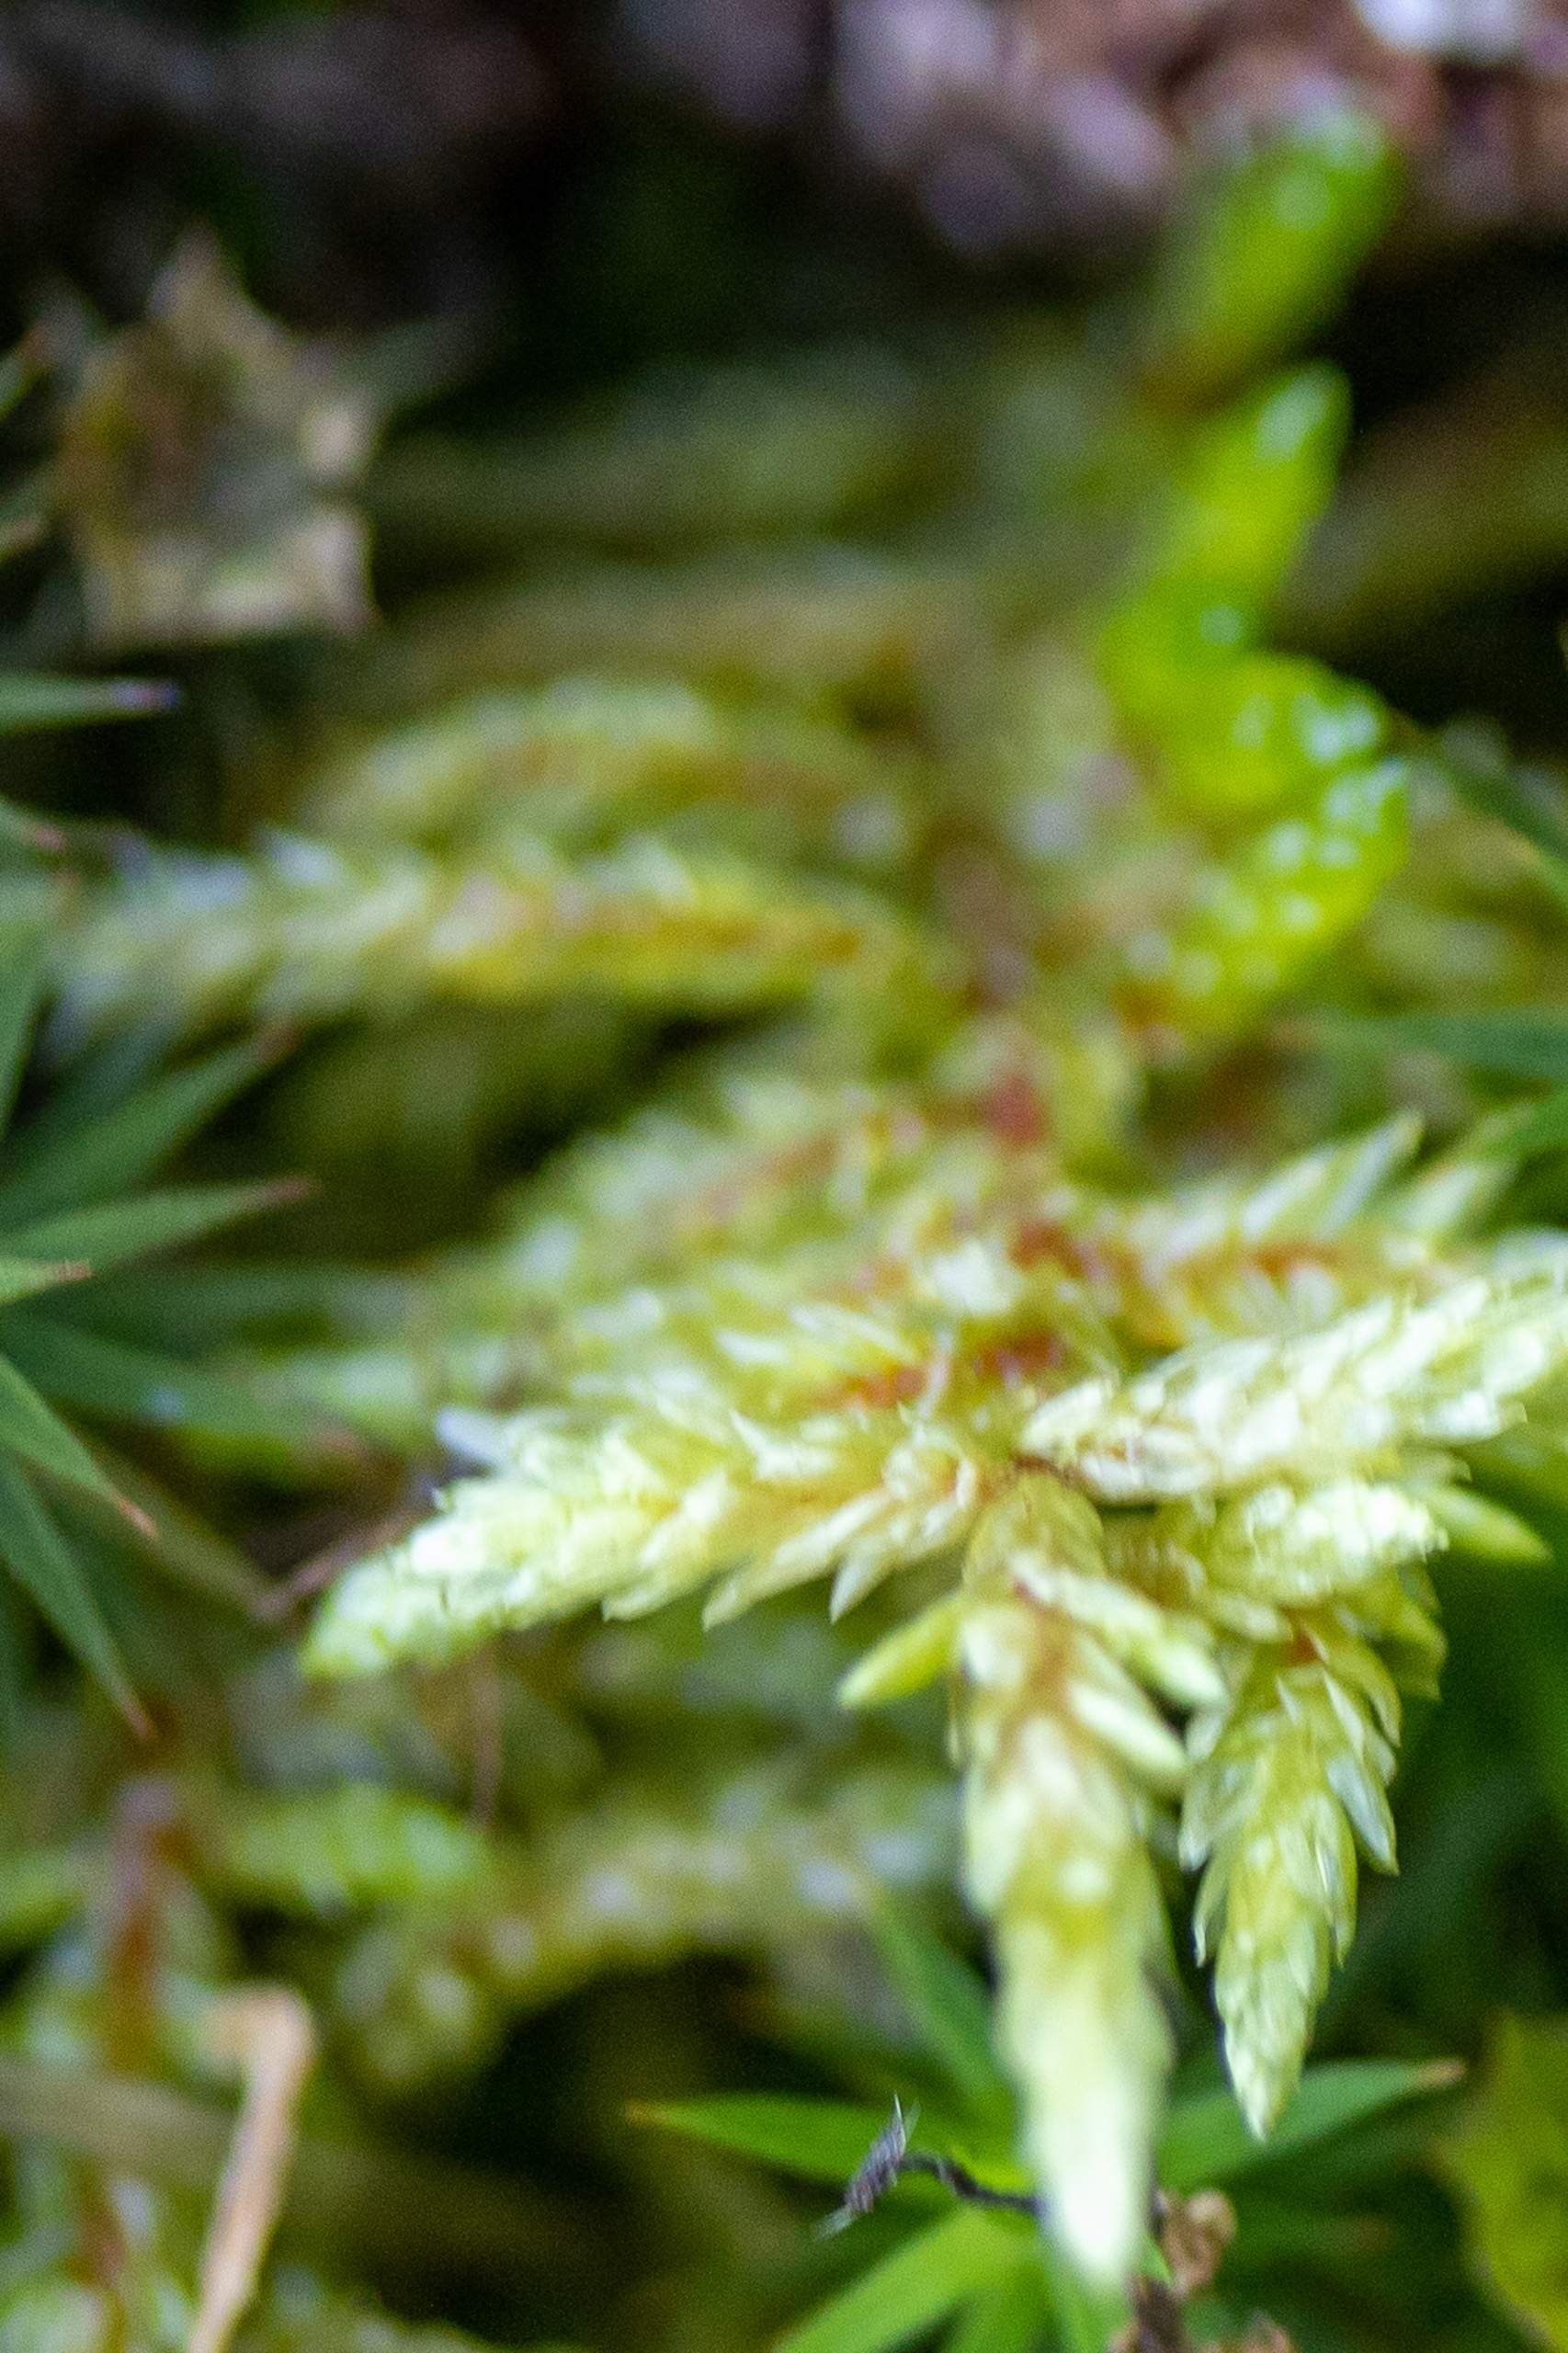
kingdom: Plantae
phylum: Bryophyta
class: Bryopsida
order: Hypnales
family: Hylocomiaceae
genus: Pleurozium
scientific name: Pleurozium schreberi
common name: Trind fyrremos
